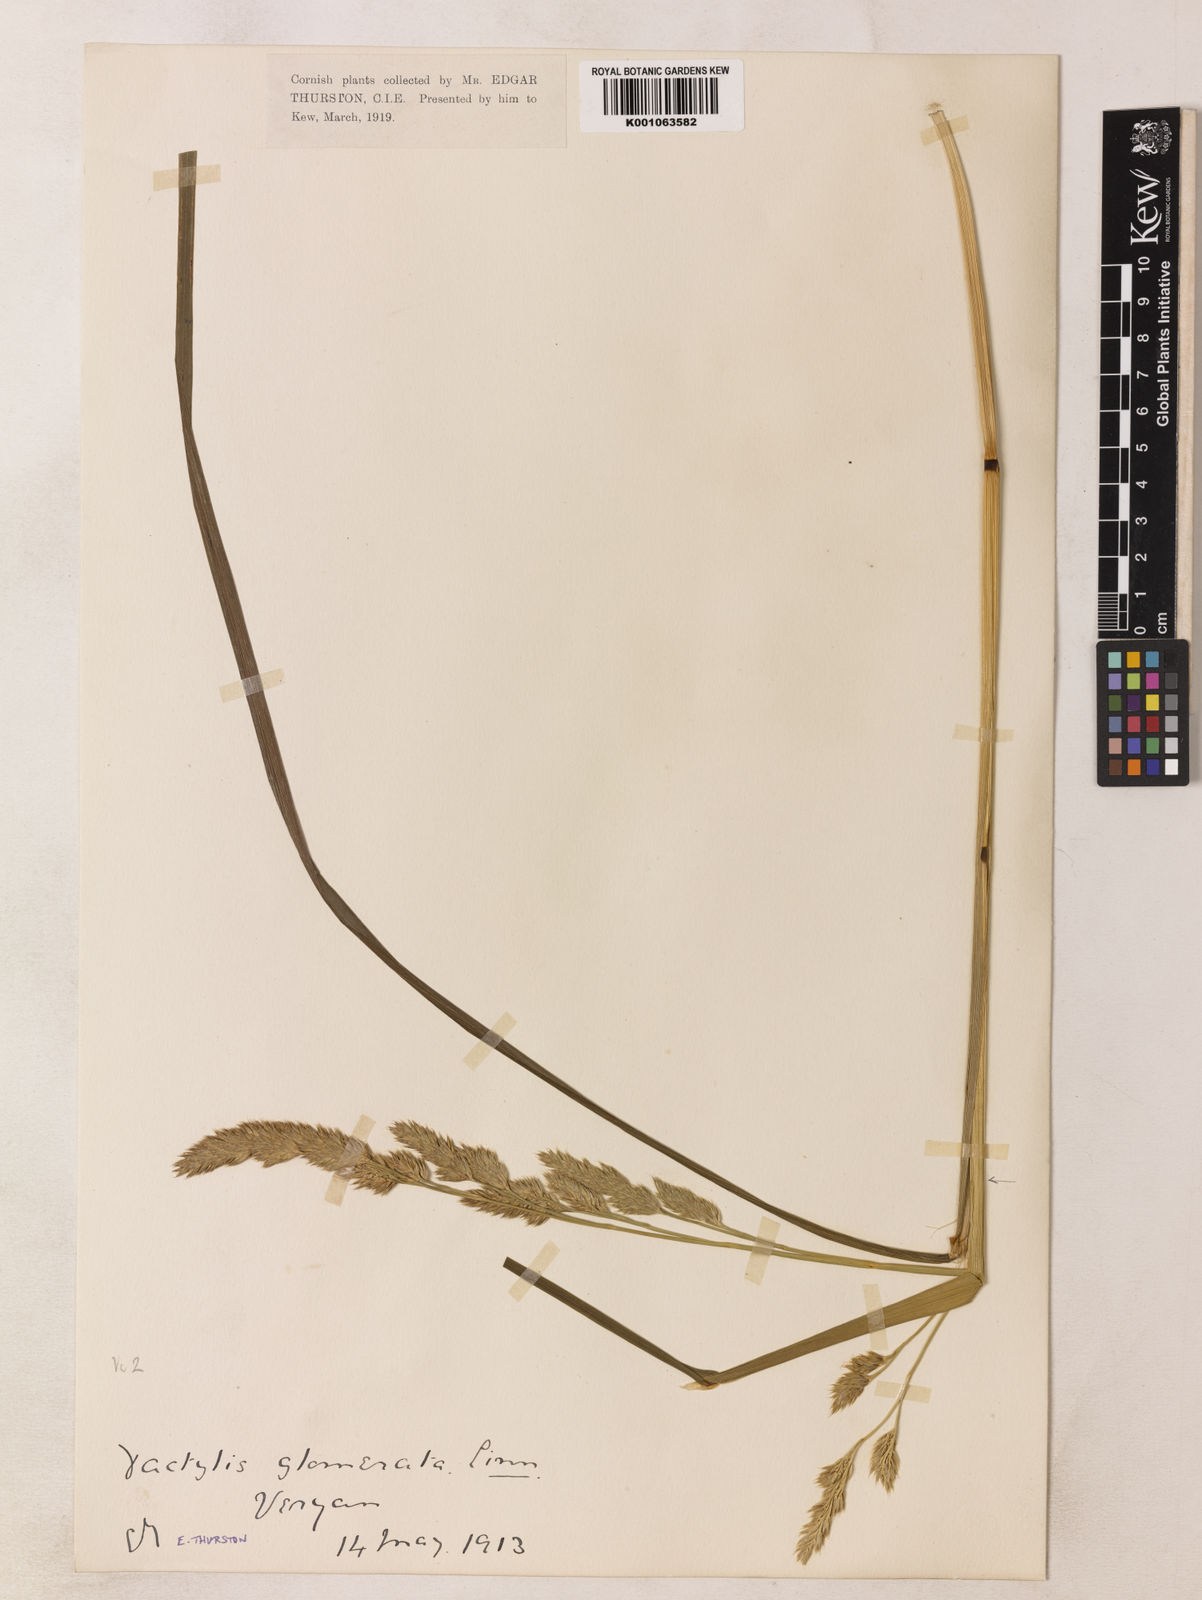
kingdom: Plantae
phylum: Tracheophyta
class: Liliopsida
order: Poales
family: Poaceae
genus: Dactylis
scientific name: Dactylis glomerata
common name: Orchardgrass
